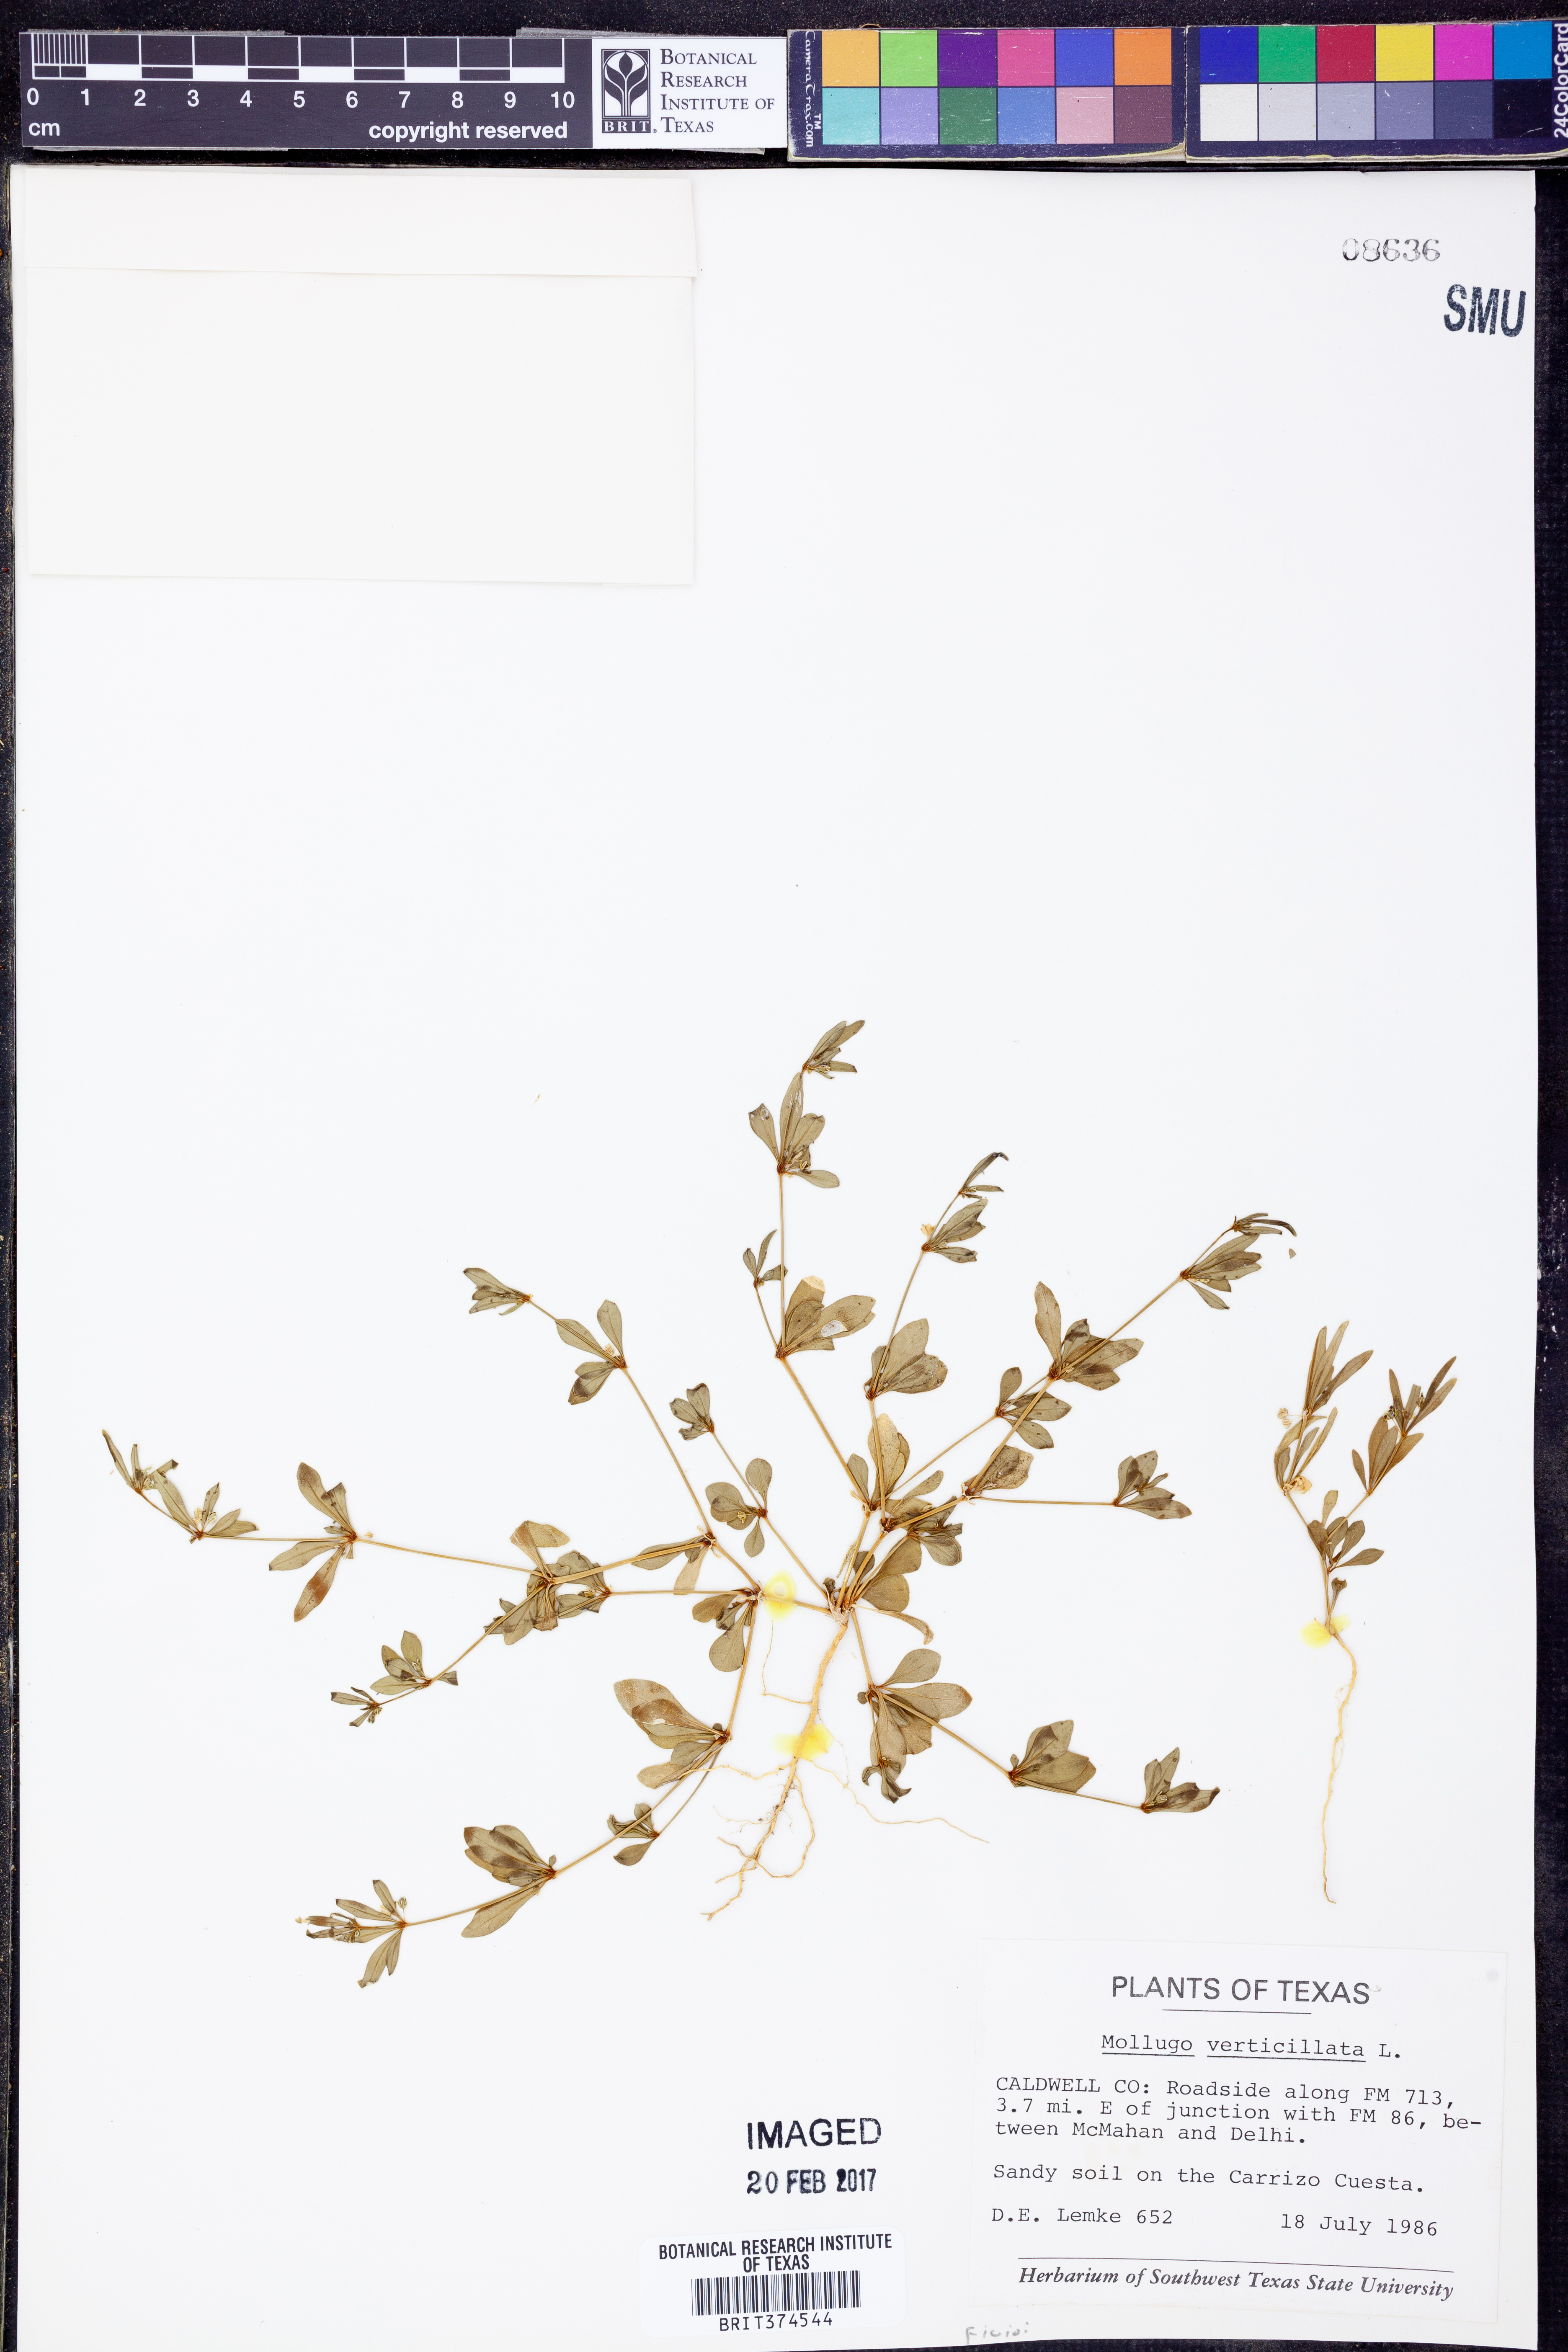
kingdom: Plantae
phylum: Tracheophyta
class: Magnoliopsida
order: Caryophyllales
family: Molluginaceae
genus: Mollugo
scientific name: Mollugo verticillata
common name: Green carpetweed
